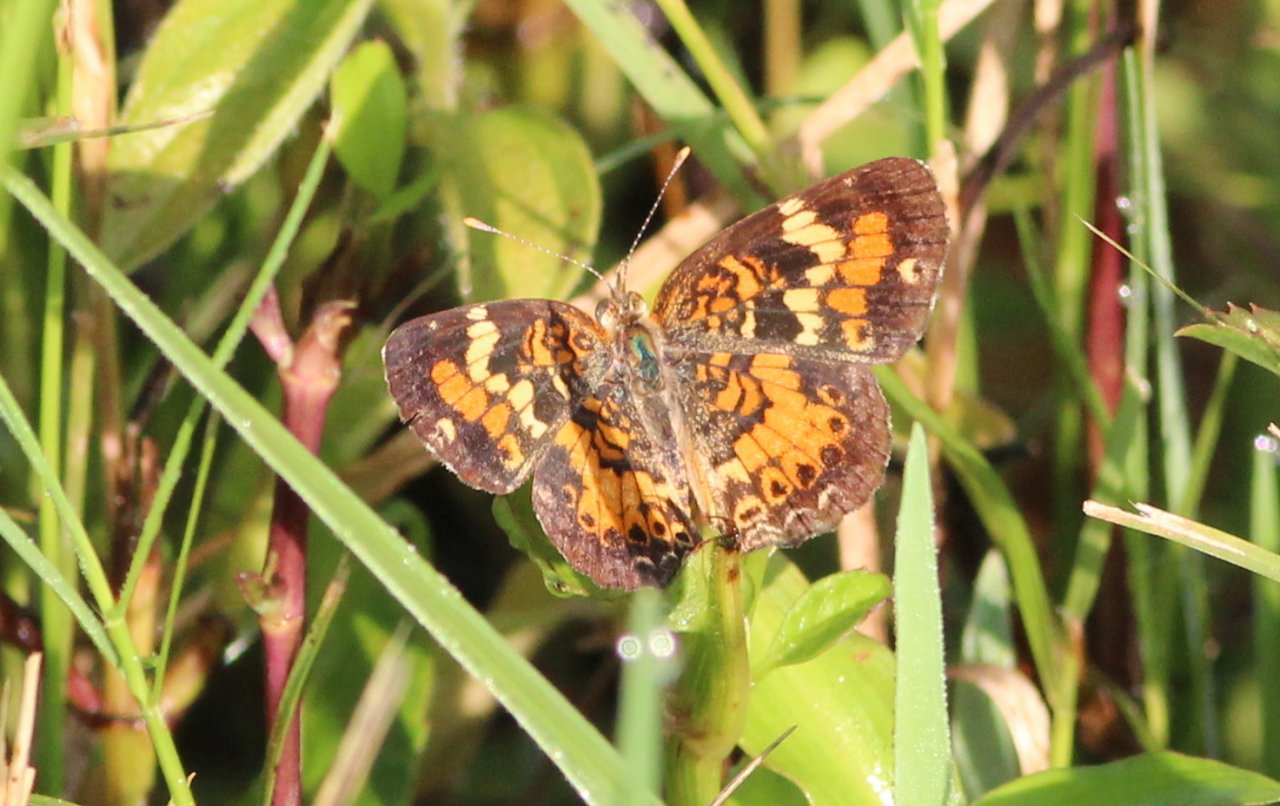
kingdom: Animalia
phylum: Arthropoda
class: Insecta
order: Lepidoptera
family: Nymphalidae
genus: Phyciodes
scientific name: Phyciodes phaon
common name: Phaon Crescent
